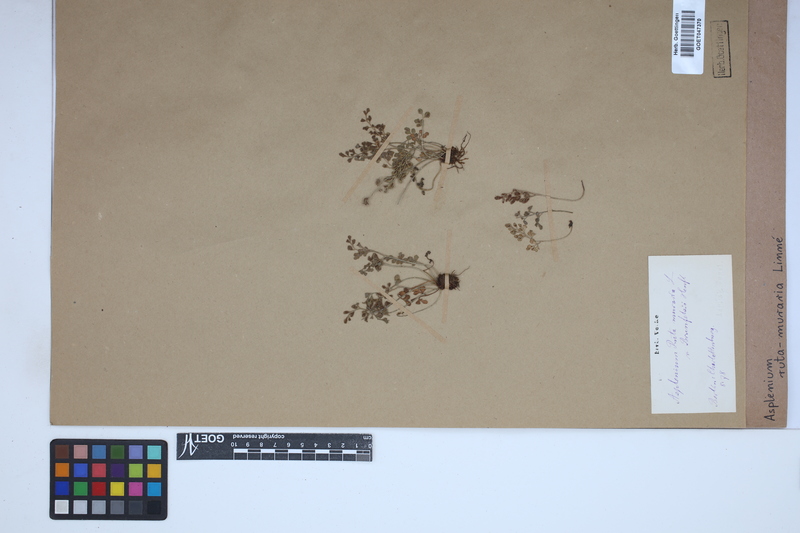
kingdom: Plantae
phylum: Tracheophyta
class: Polypodiopsida
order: Polypodiales
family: Aspleniaceae
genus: Asplenium
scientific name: Asplenium ruta-muraria
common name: Wall-rue
